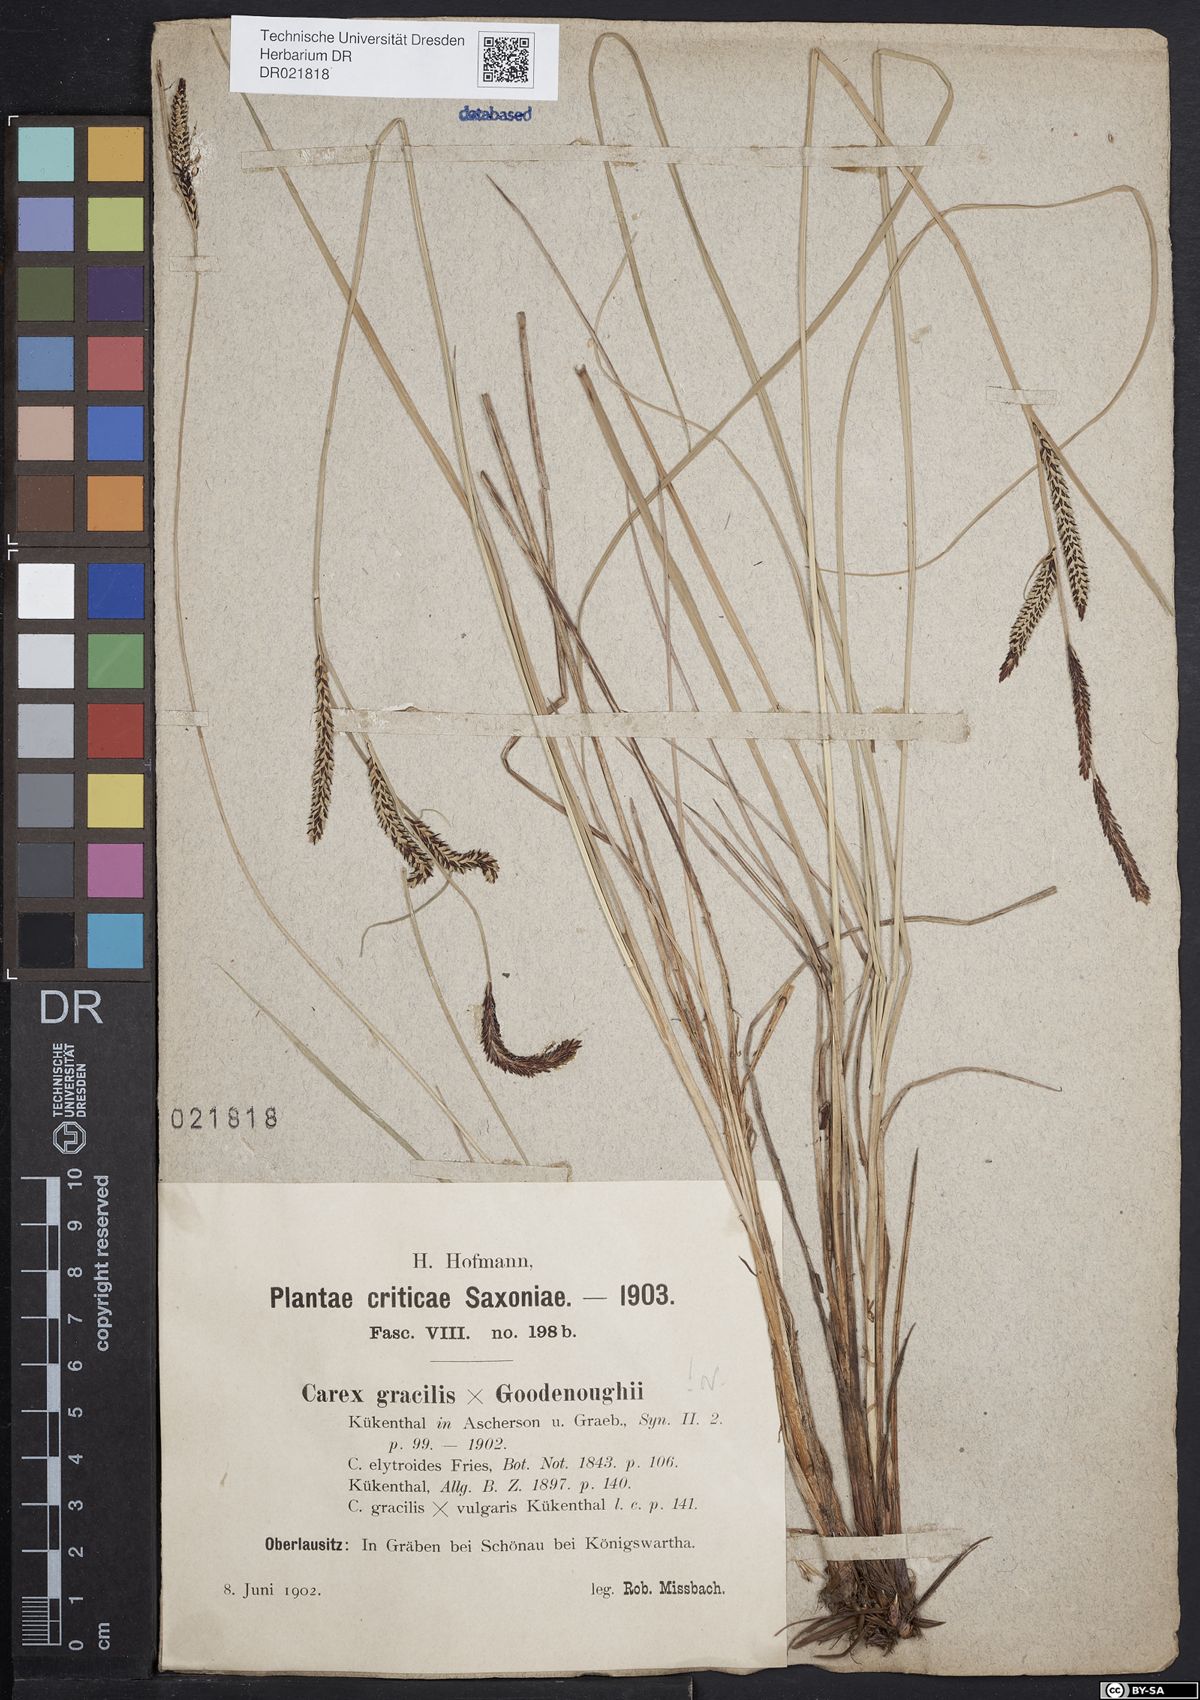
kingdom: Plantae
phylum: Tracheophyta
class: Liliopsida
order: Poales
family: Cyperaceae
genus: Carex
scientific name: Carex elytroides
